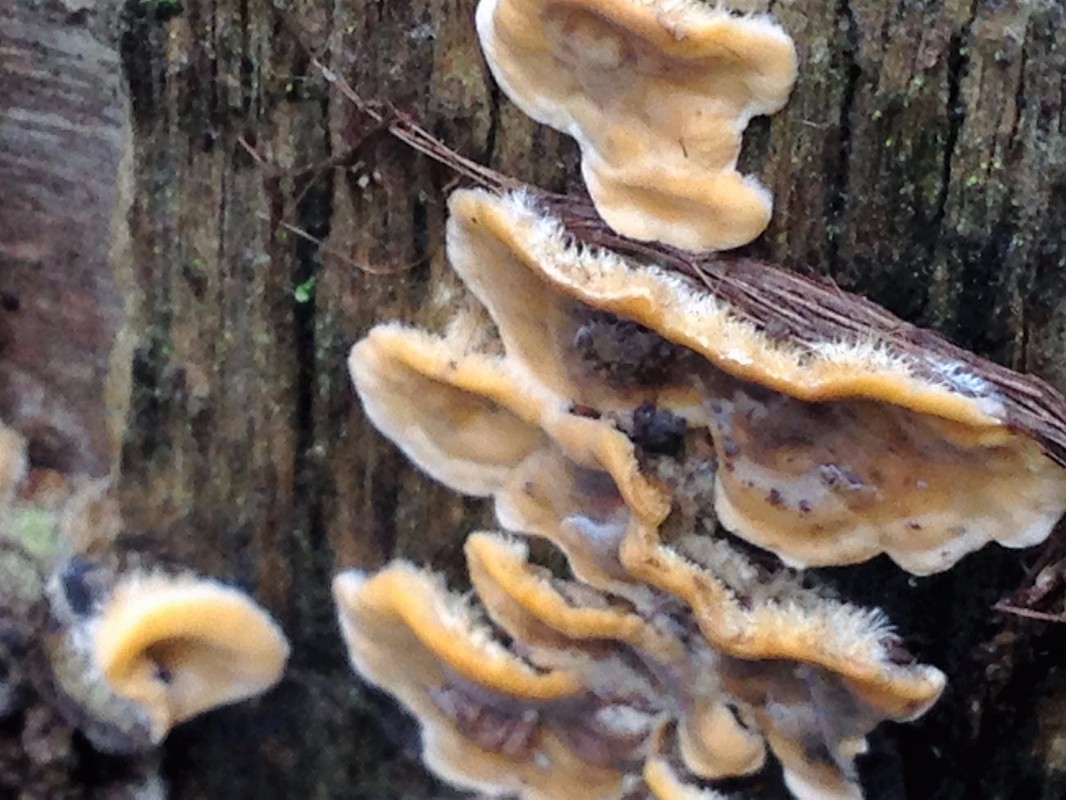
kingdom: Fungi
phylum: Basidiomycota
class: Agaricomycetes
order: Russulales
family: Stereaceae
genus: Stereum
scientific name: Stereum hirsutum
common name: håret lædersvamp
